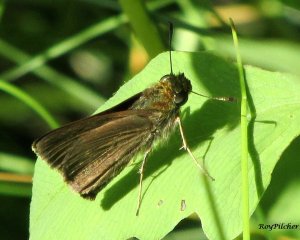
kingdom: Animalia
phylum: Arthropoda
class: Insecta
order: Lepidoptera
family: Hesperiidae
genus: Euphyes
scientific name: Euphyes vestris
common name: Dun Skipper
